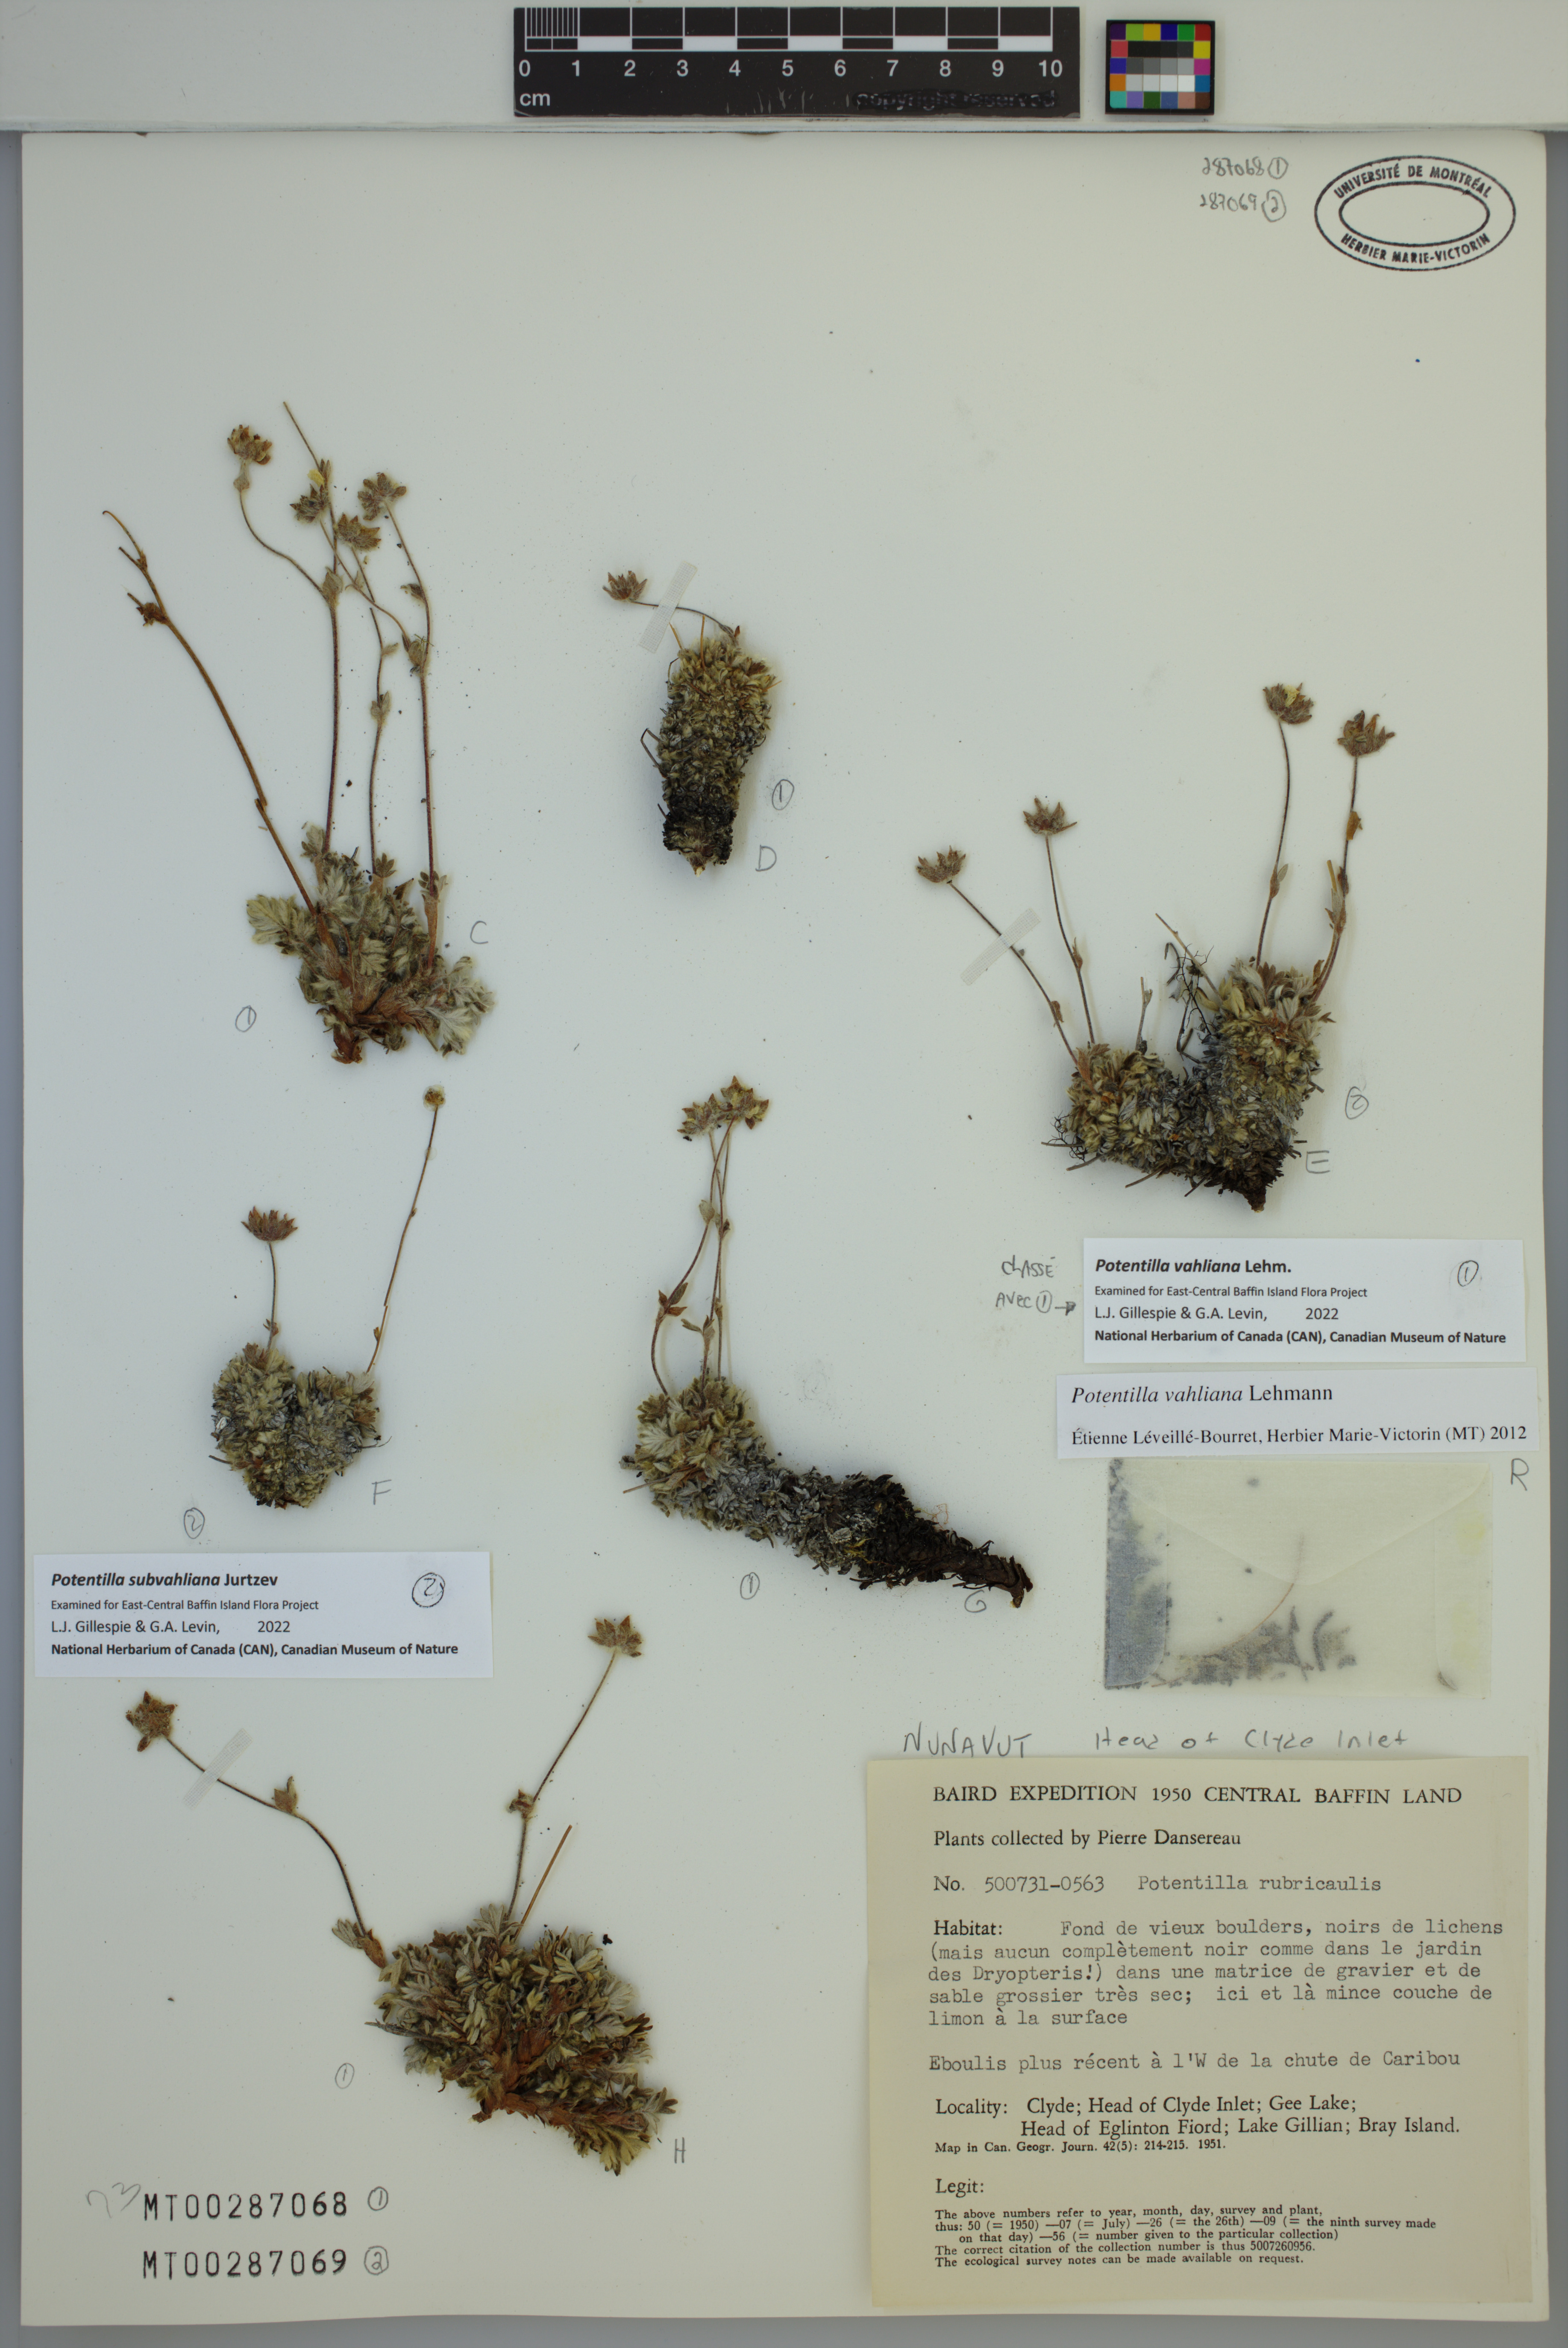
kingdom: Plantae
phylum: Tracheophyta
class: Magnoliopsida
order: Rosales
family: Rosaceae
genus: Potentilla
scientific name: Potentilla vahliana
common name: Vahl's cinquefoil
